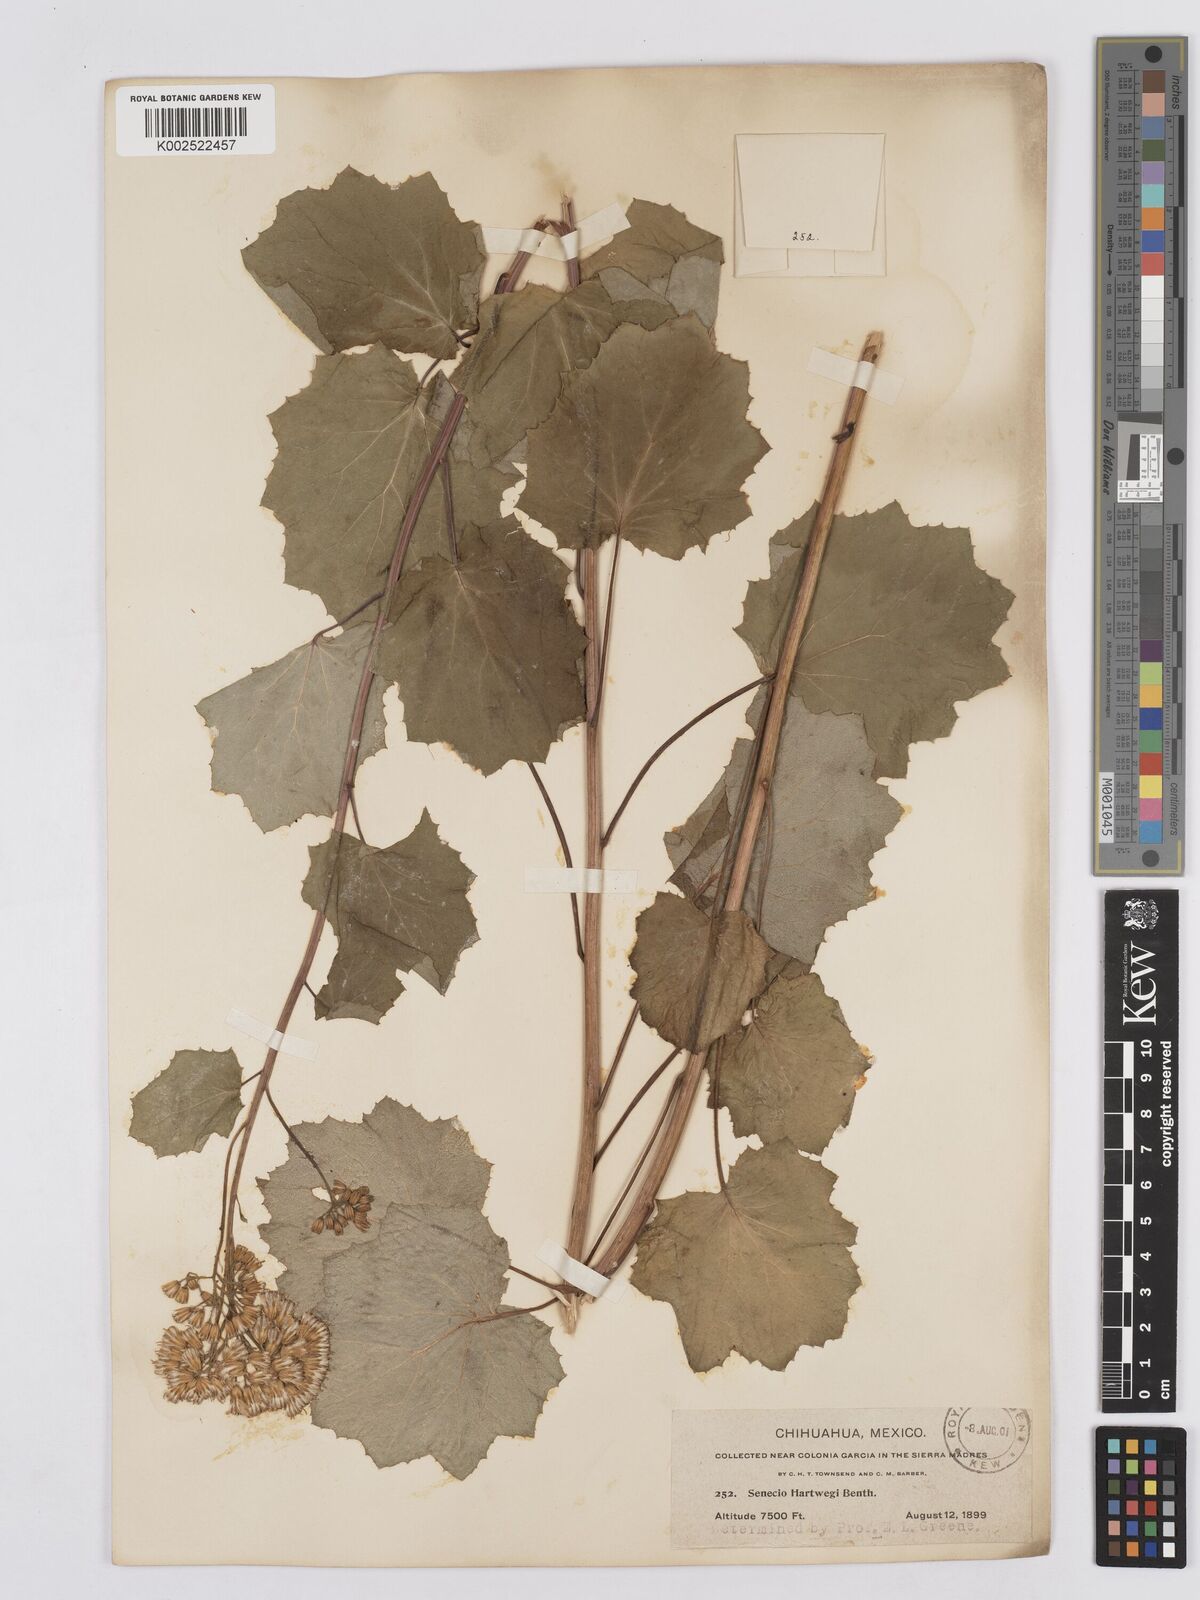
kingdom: Plantae
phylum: Tracheophyta
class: Magnoliopsida
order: Asterales
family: Asteraceae
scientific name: Asteraceae
